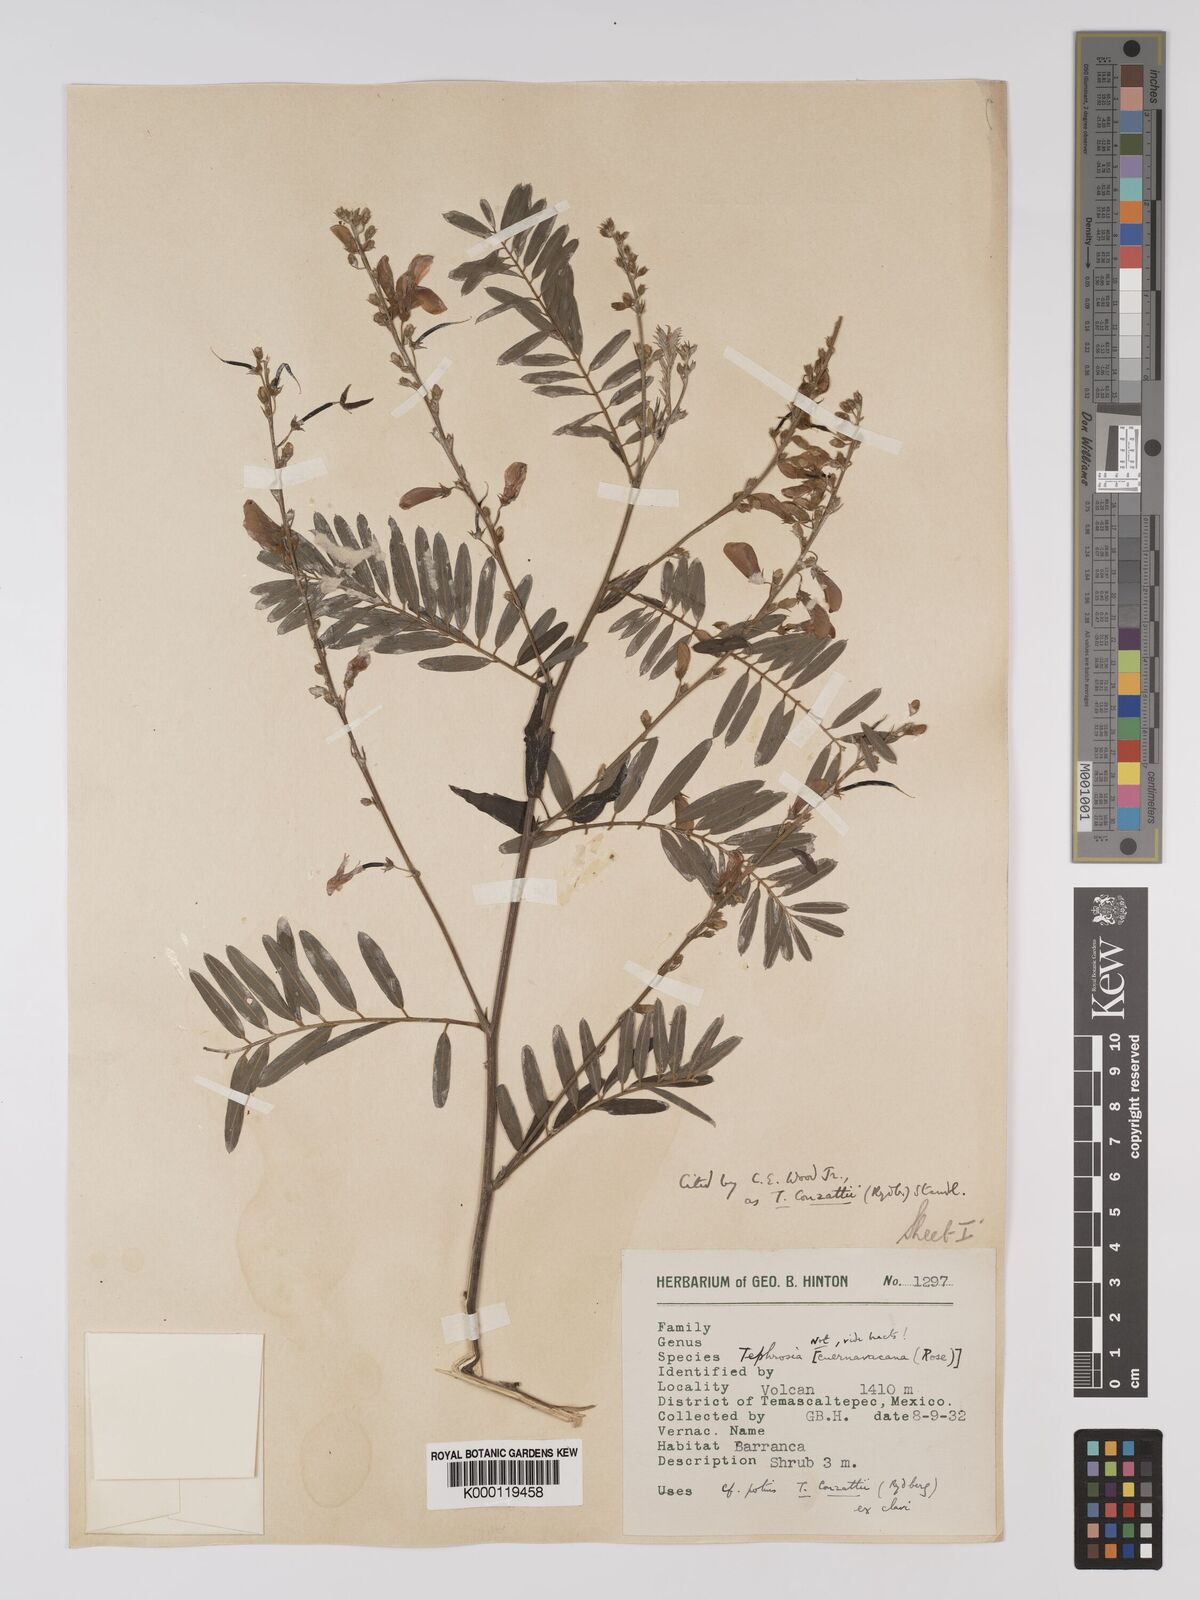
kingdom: Plantae
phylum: Tracheophyta
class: Magnoliopsida
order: Fabales
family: Fabaceae
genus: Tephrosia
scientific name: Tephrosia conzattii
